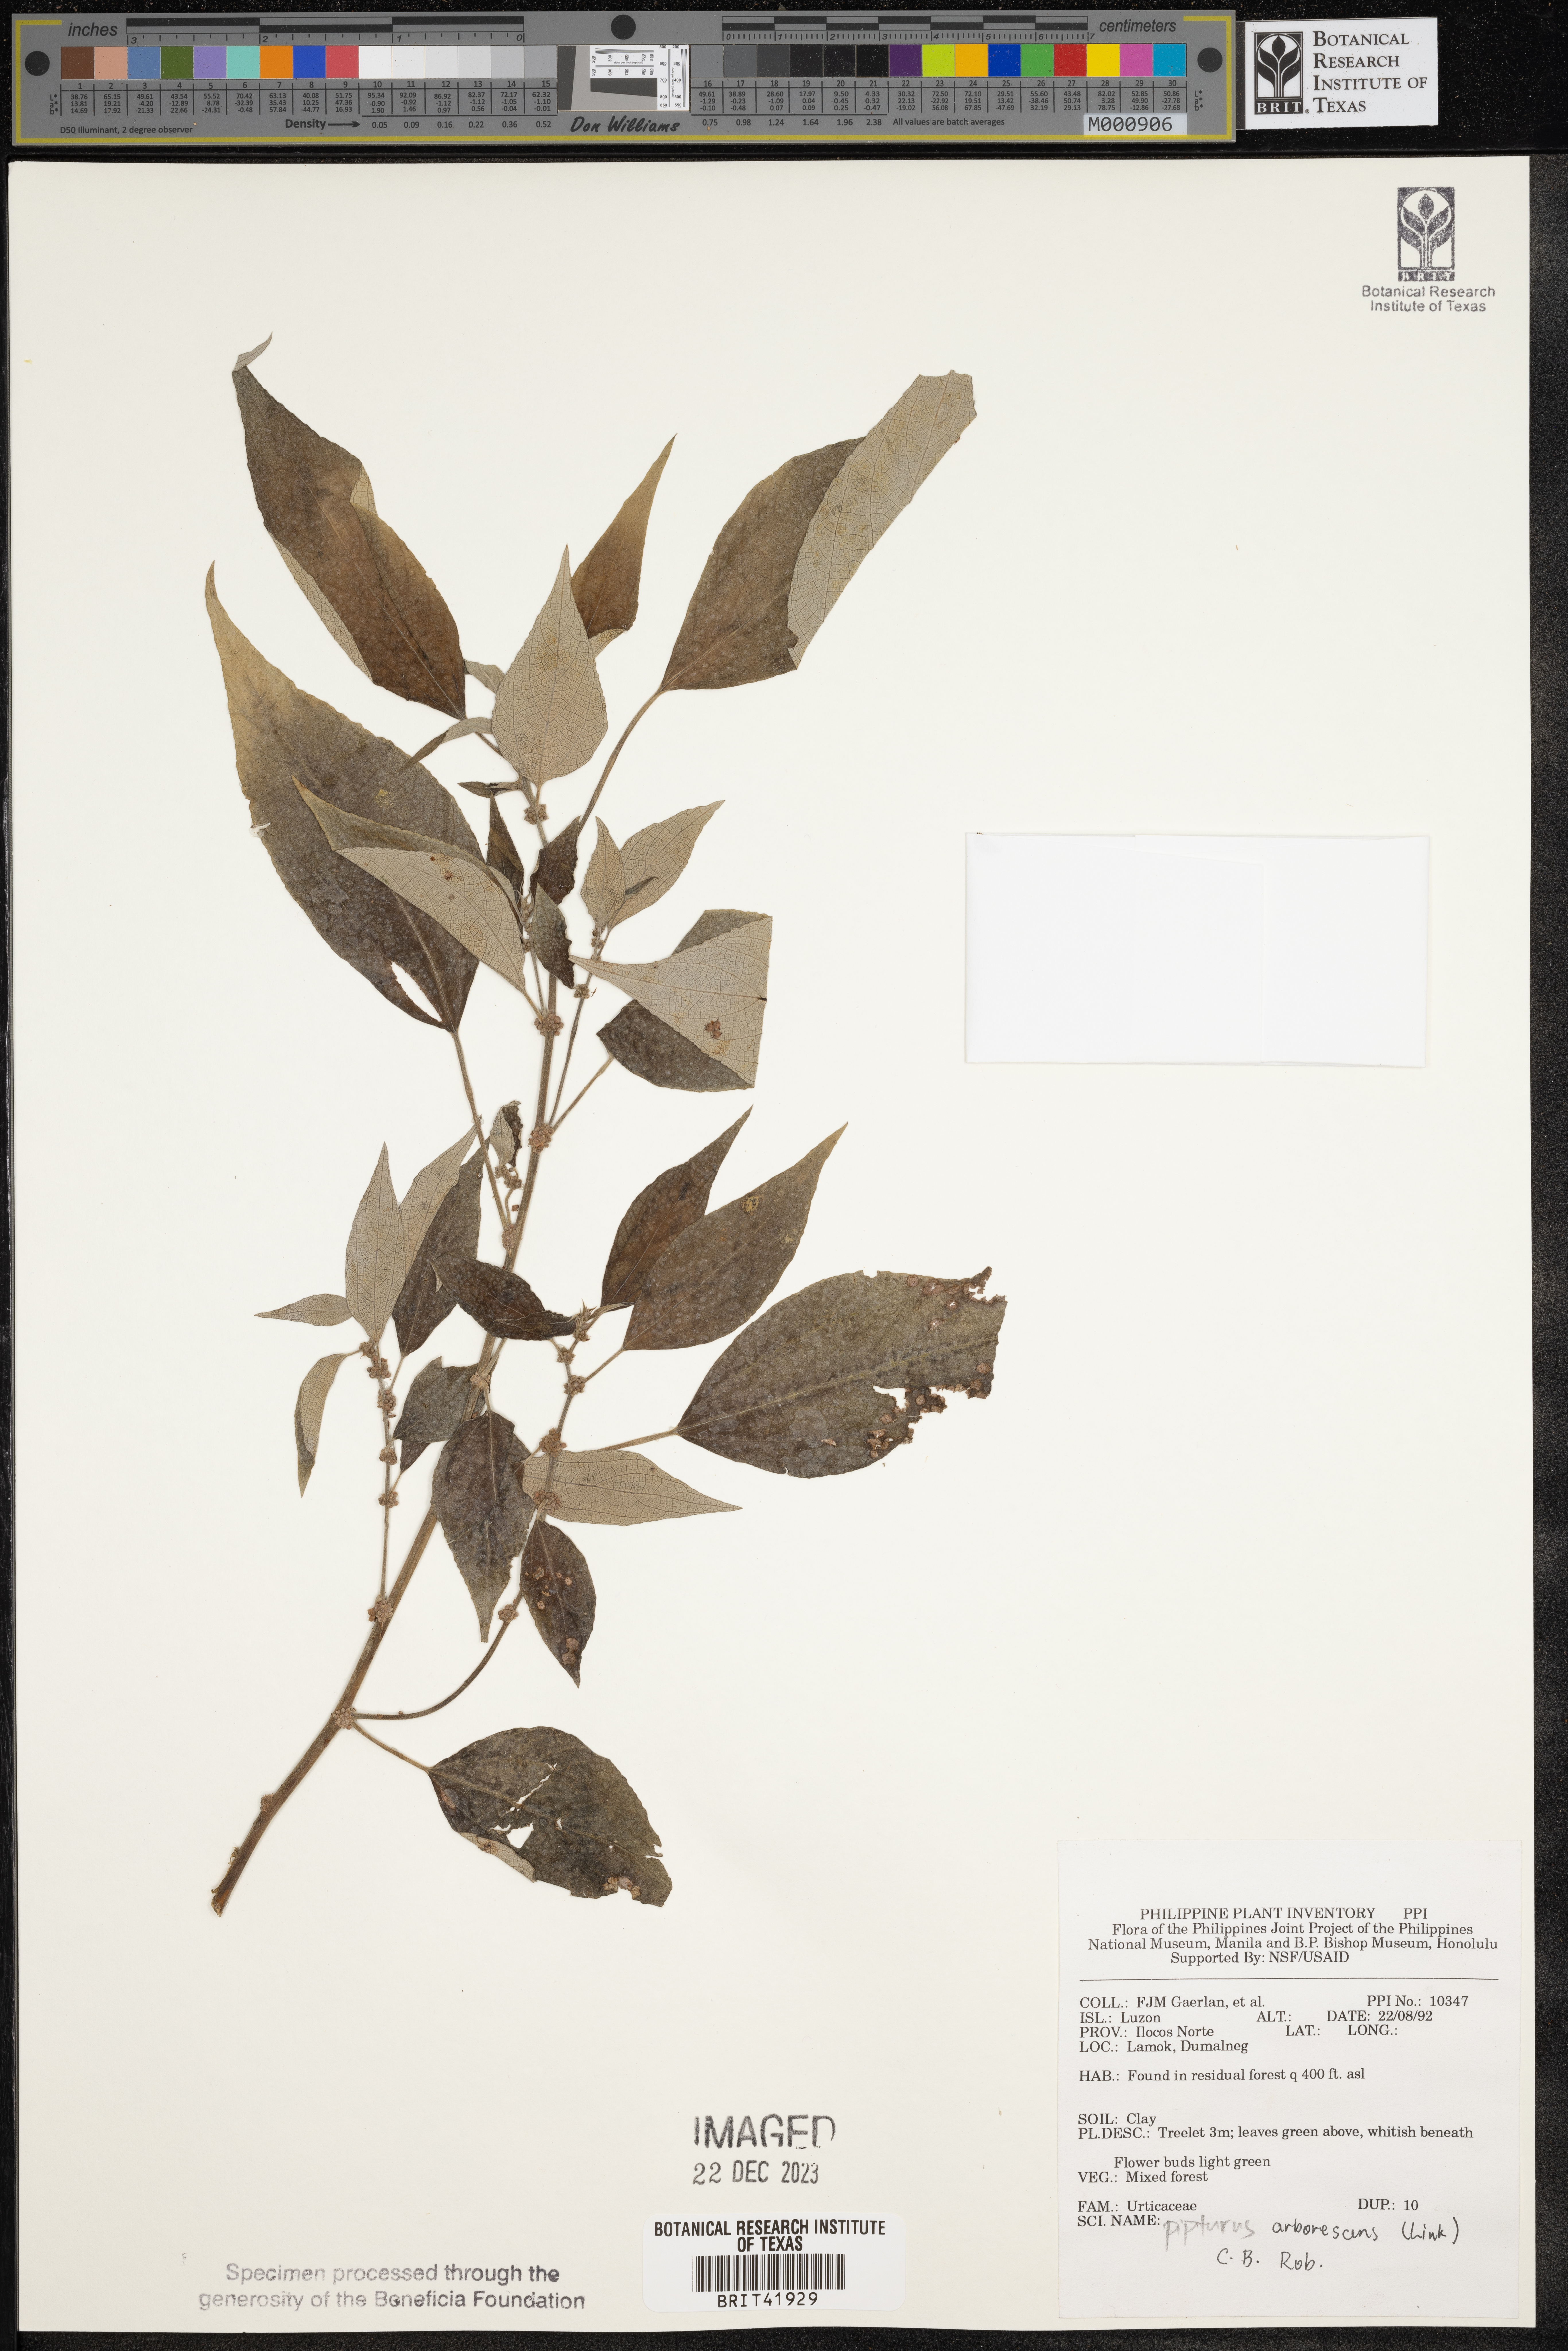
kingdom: Plantae
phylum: Tracheophyta
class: Magnoliopsida
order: Rosales
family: Urticaceae
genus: Pipturus
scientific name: Pipturus arborescens
